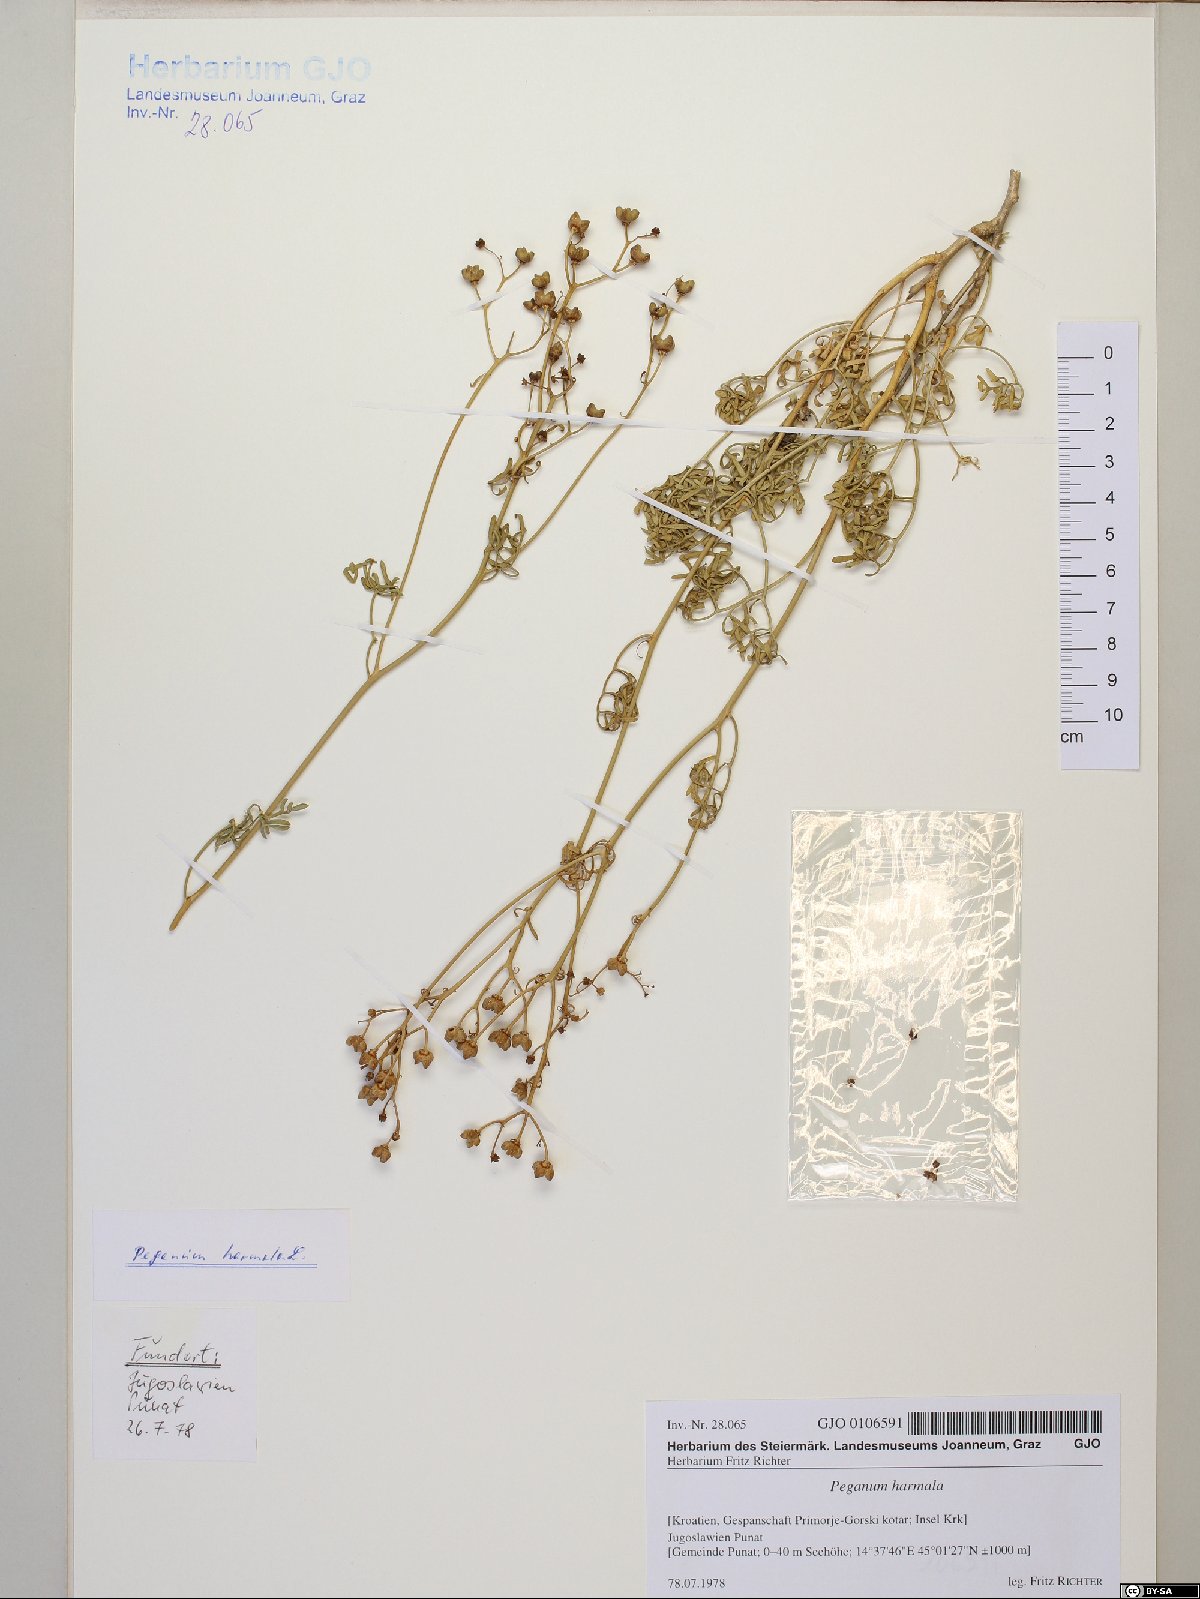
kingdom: Plantae
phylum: Tracheophyta
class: Magnoliopsida
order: Sapindales
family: Rutaceae
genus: Ruta
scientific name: Ruta graveolens
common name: Common rue
